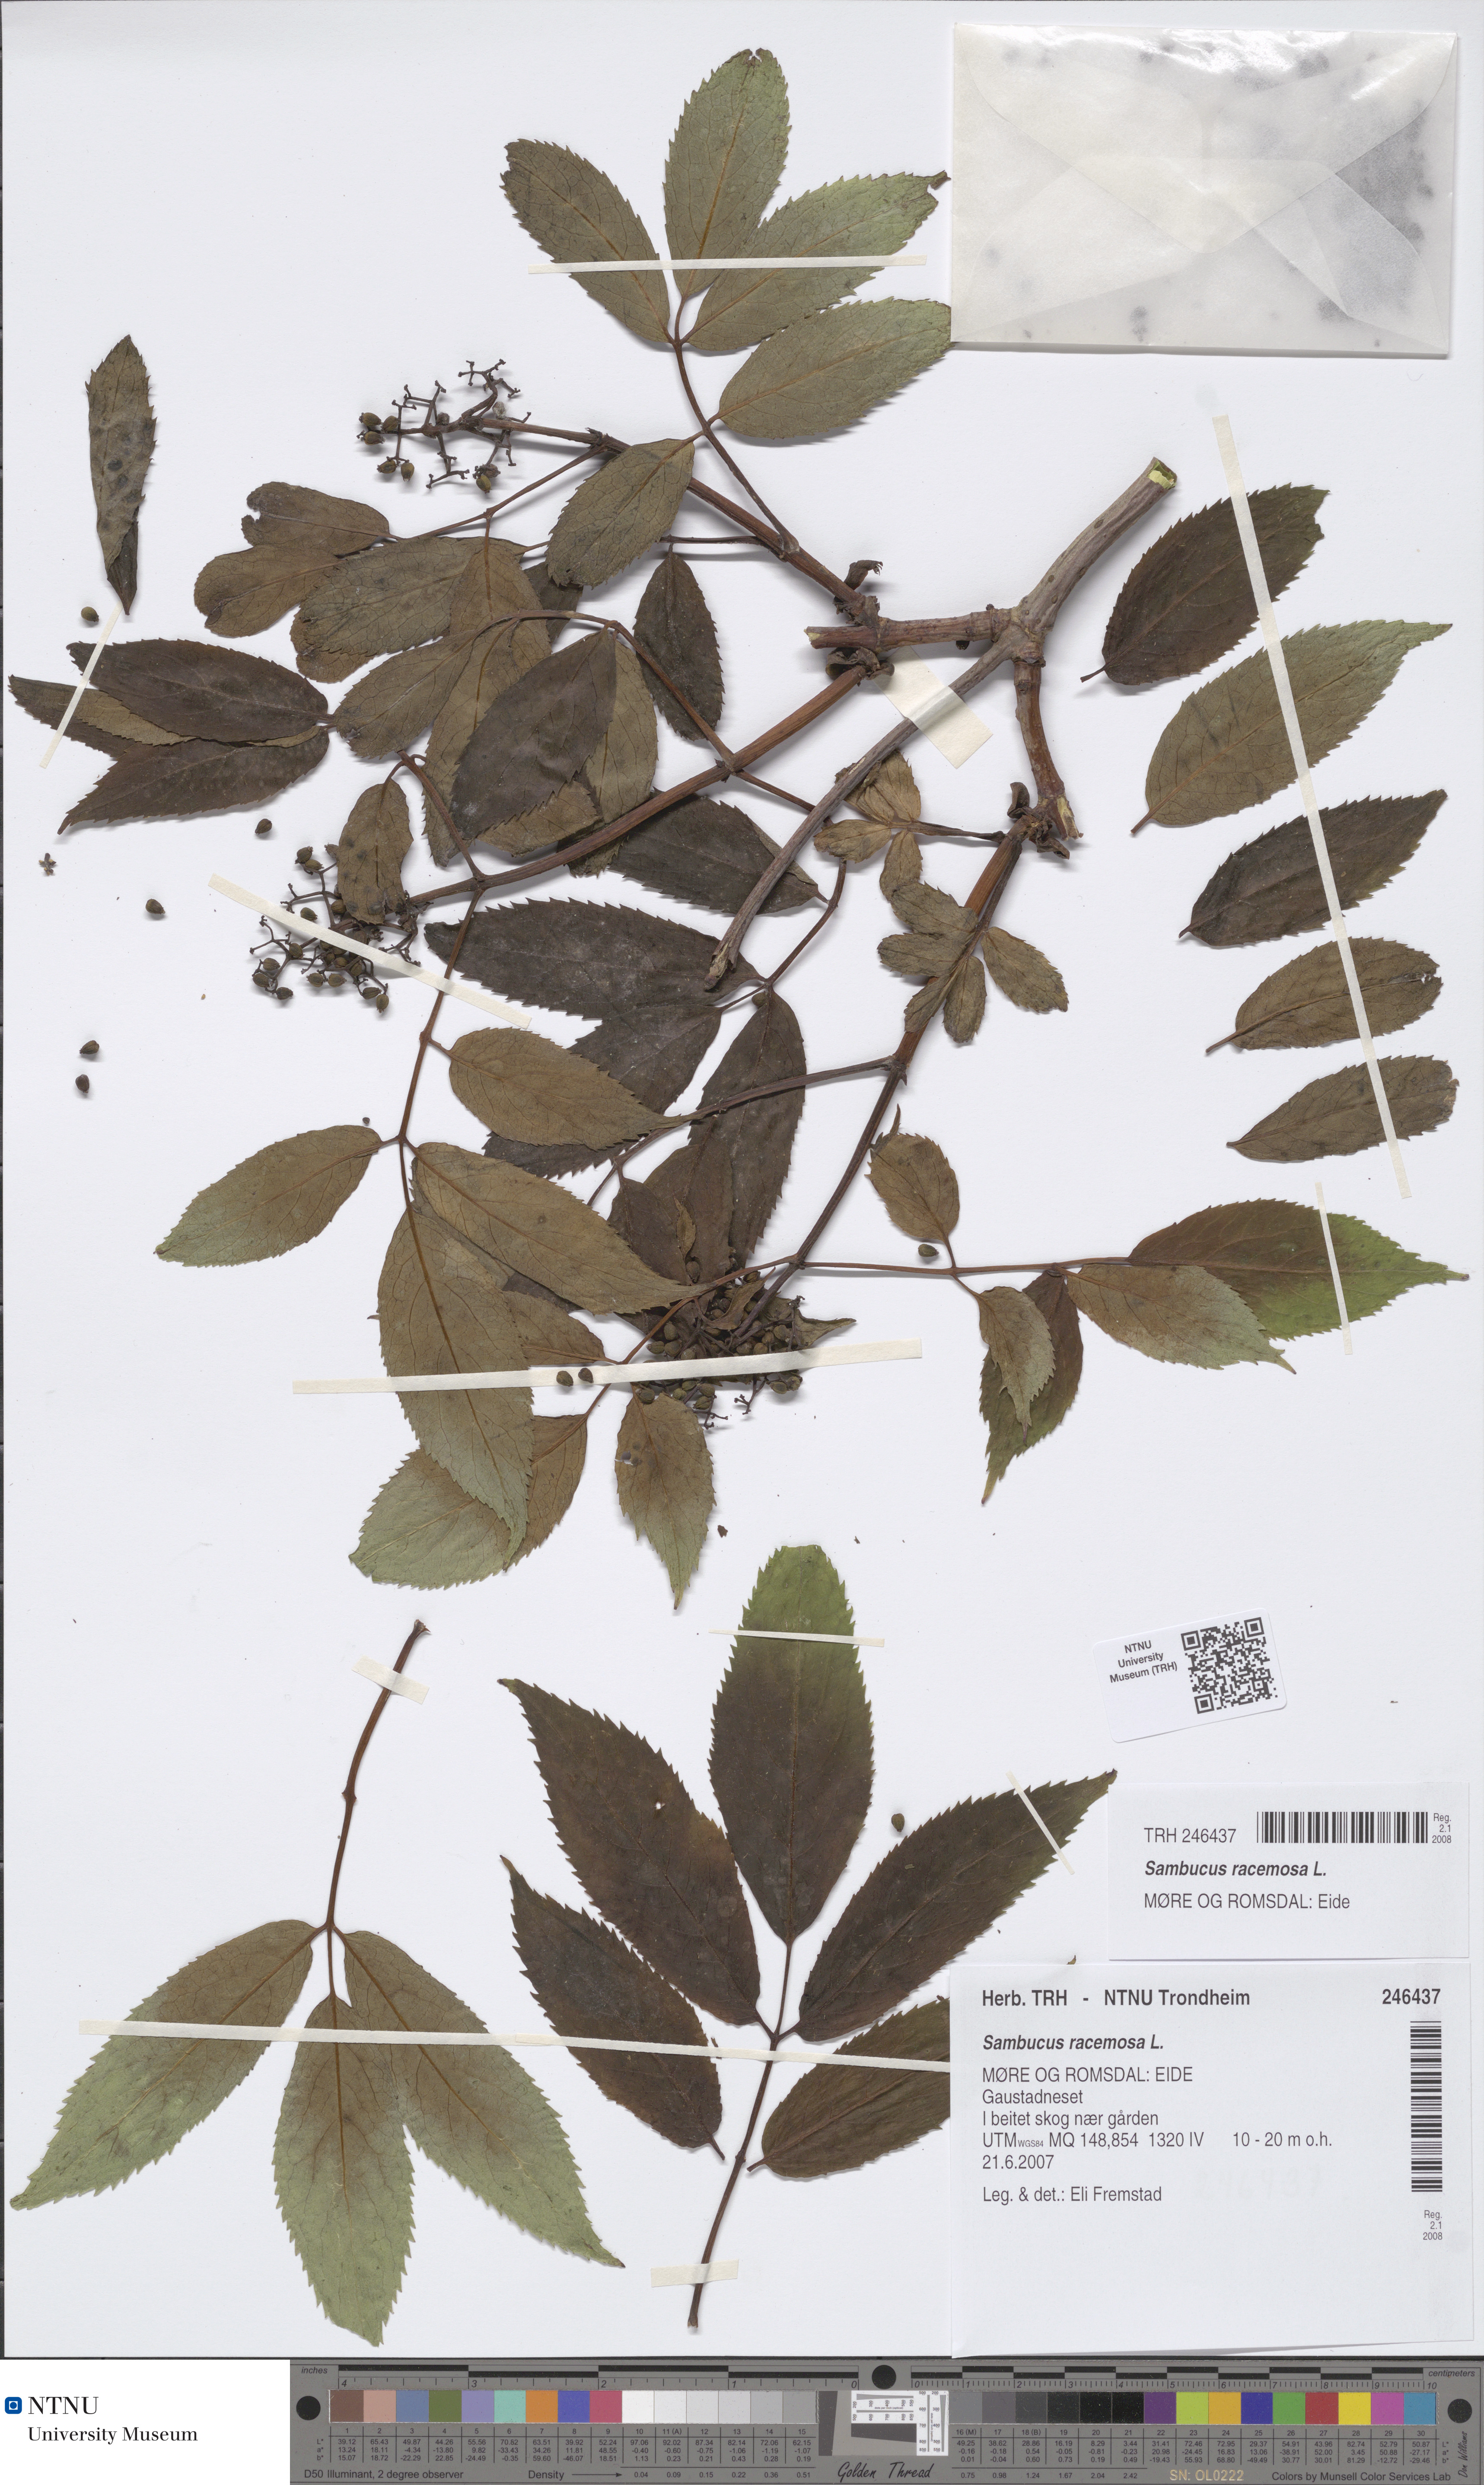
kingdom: Plantae
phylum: Tracheophyta
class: Magnoliopsida
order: Dipsacales
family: Viburnaceae
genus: Sambucus
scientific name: Sambucus racemosa
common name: Red-berried elder
